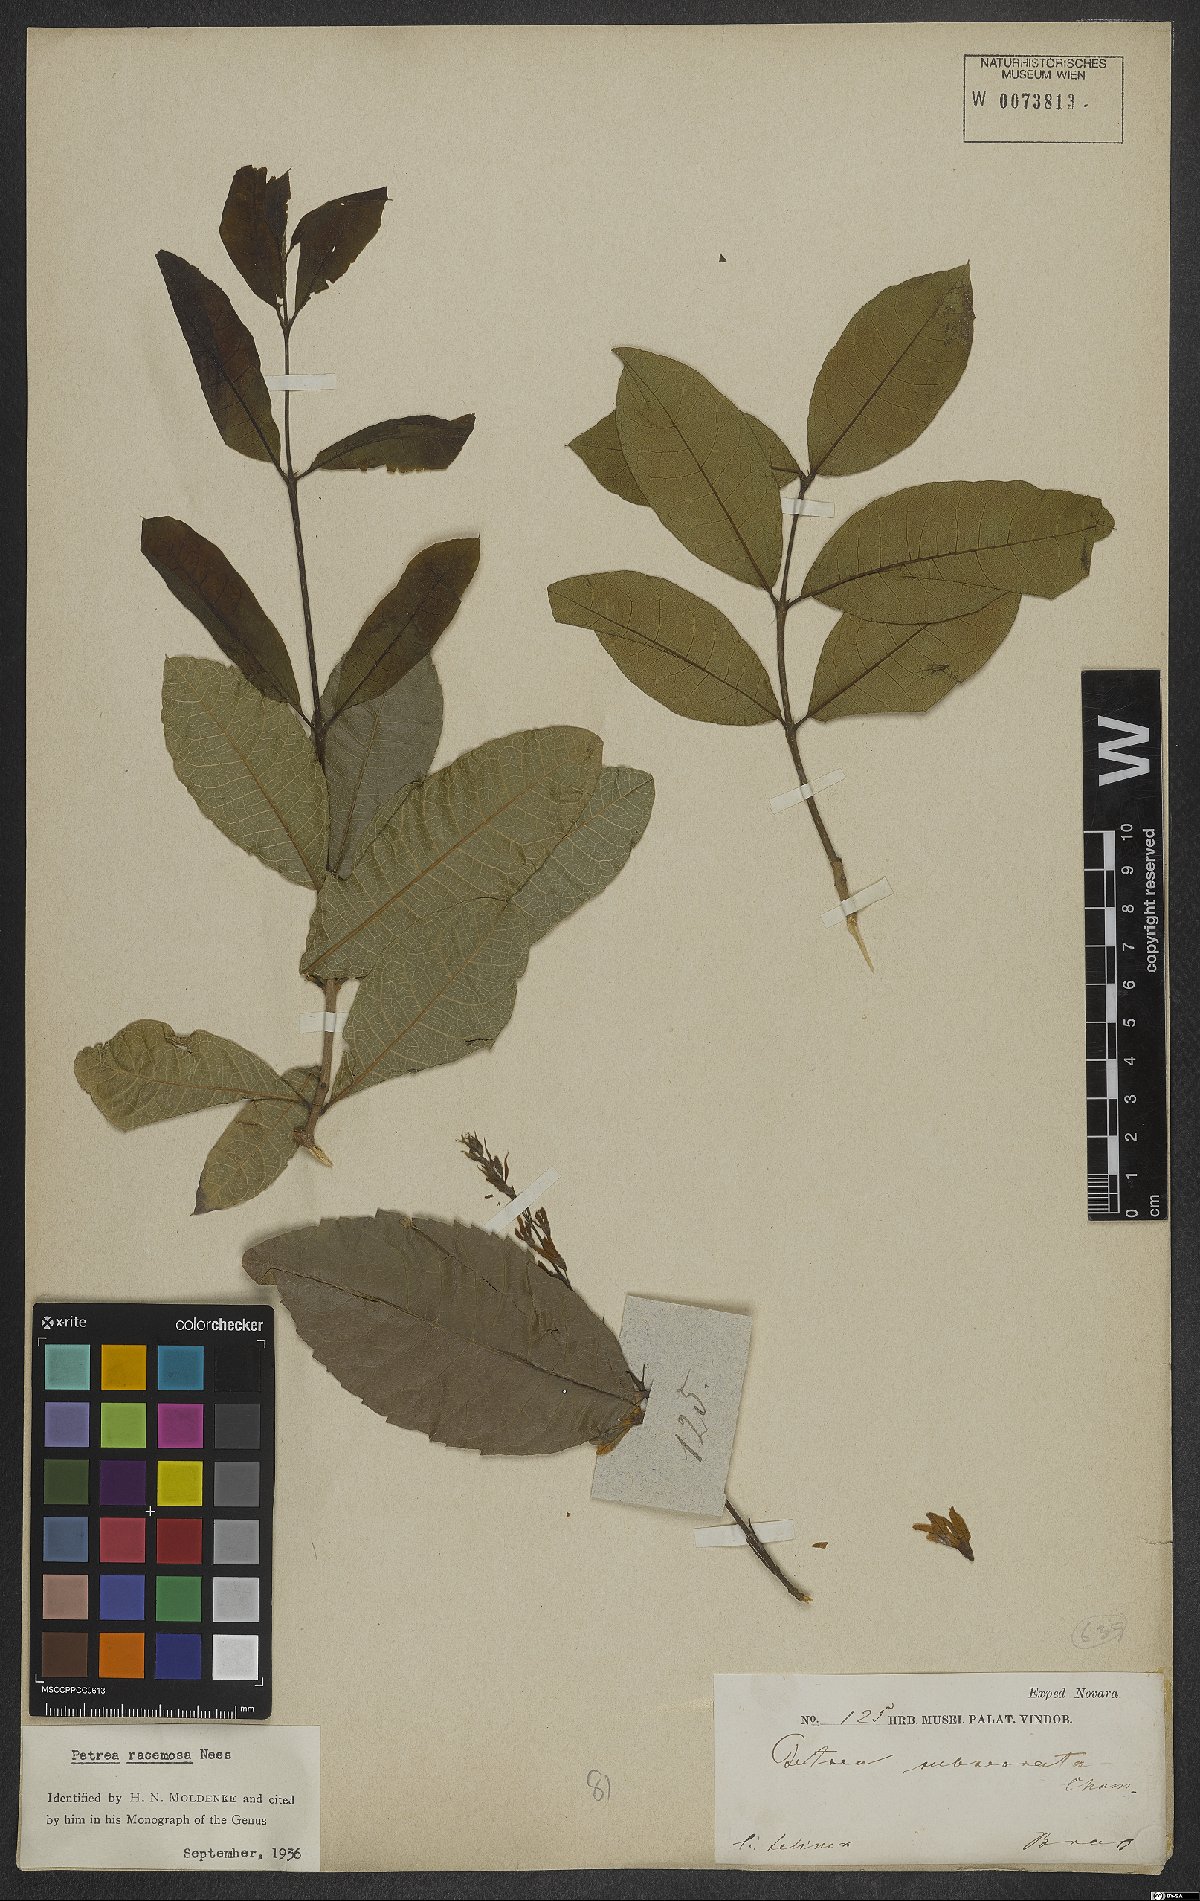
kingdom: Plantae
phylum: Tracheophyta
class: Magnoliopsida
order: Lamiales
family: Verbenaceae
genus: Petrea
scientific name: Petrea volubilis
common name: Queen's-wreath
